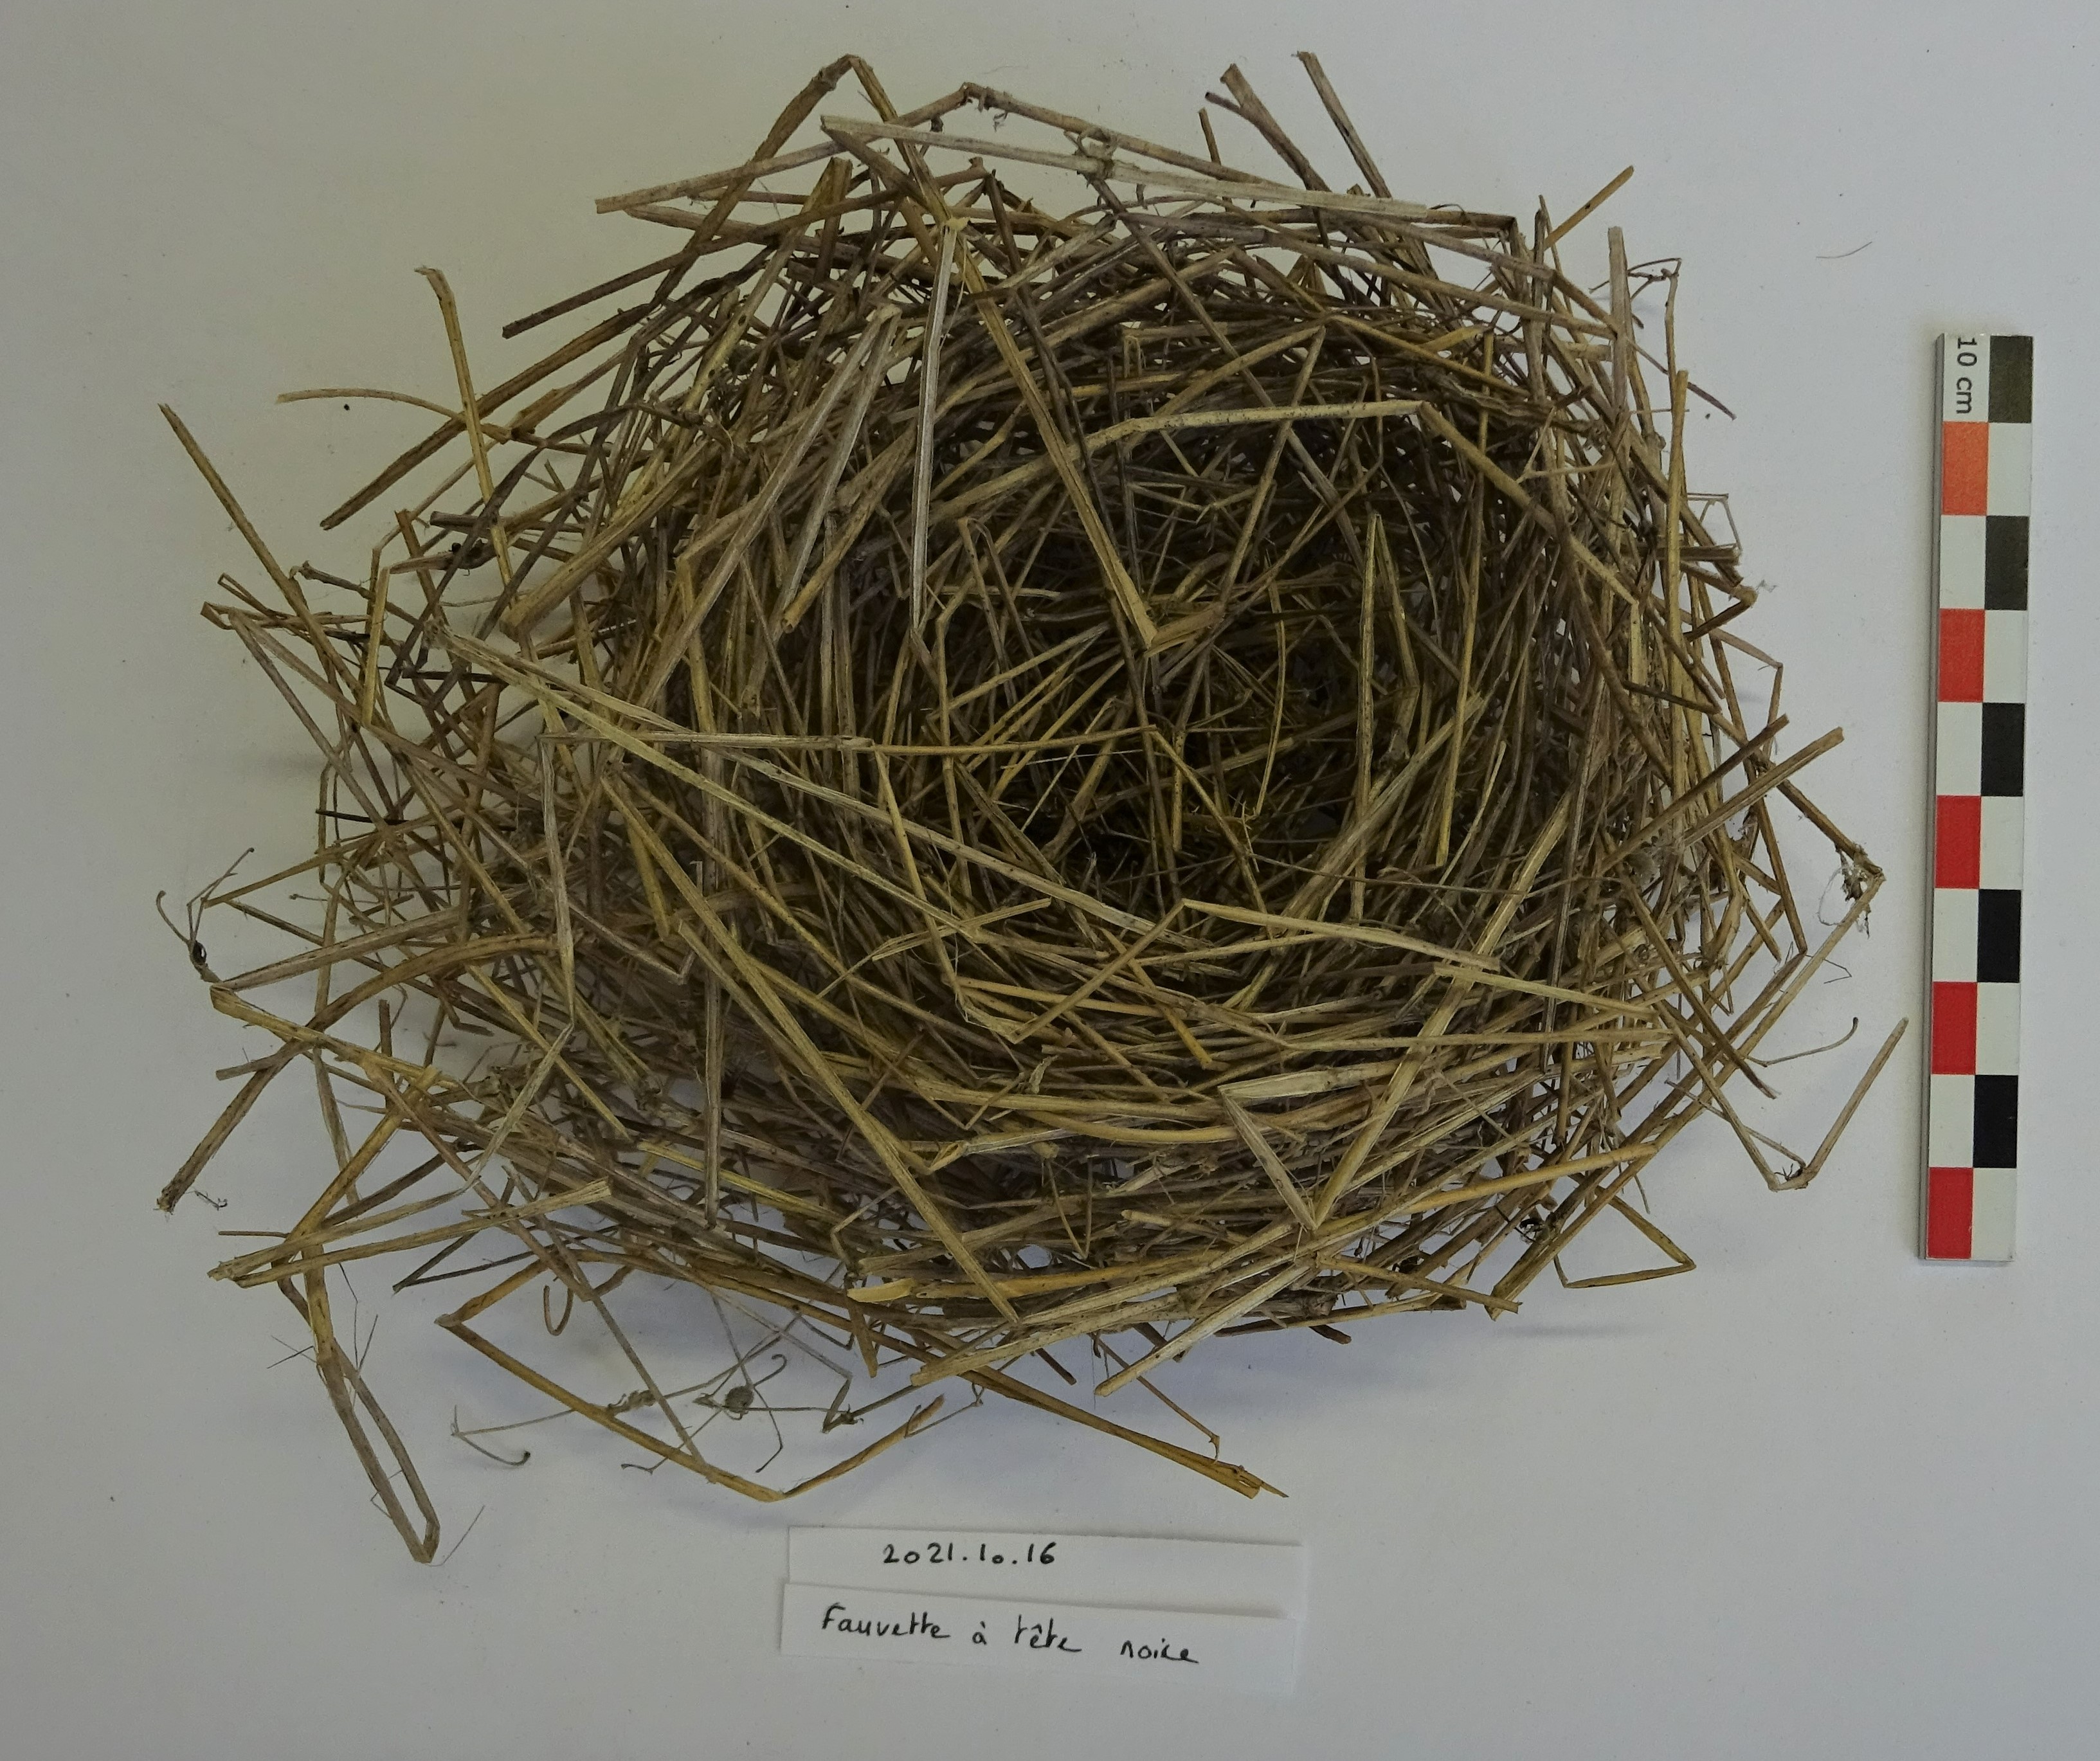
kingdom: Animalia
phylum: Chordata
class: Aves
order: Passeriformes
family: Sylviidae
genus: Sylvia
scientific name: Sylvia atricapilla
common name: Eurasian blackcap
